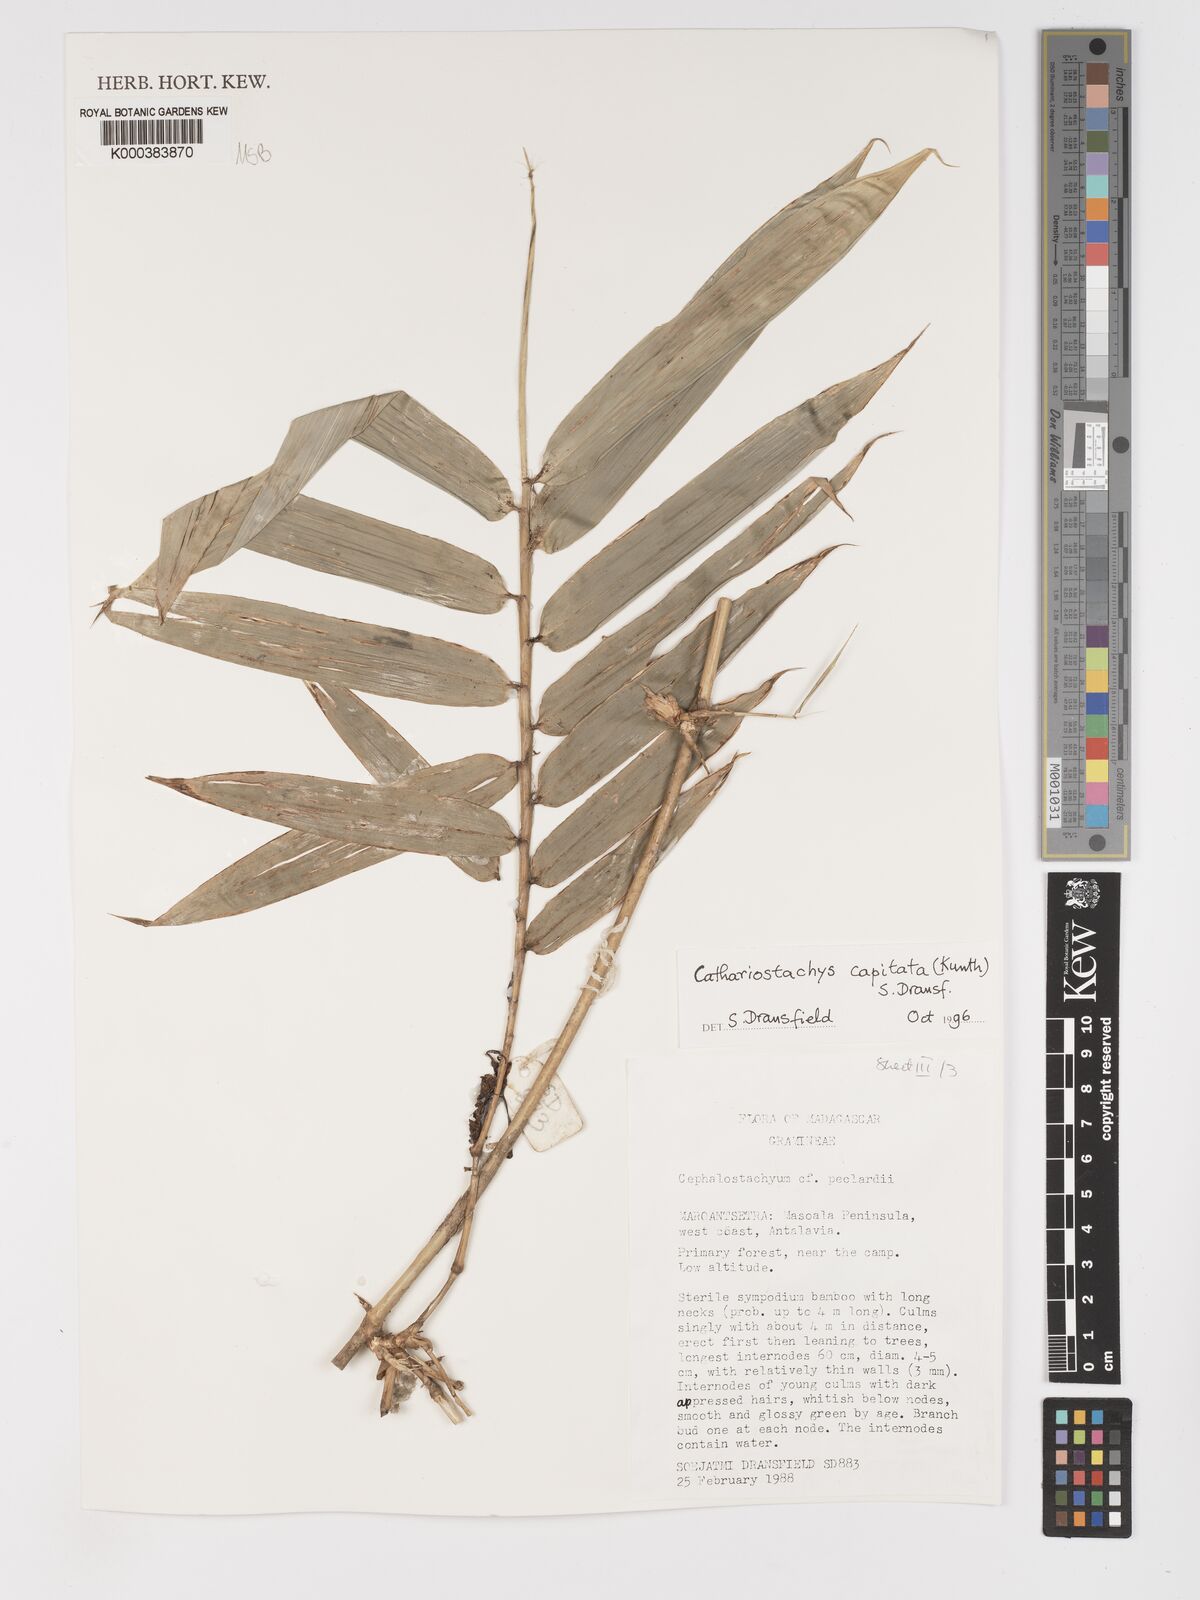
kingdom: Plantae
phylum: Tracheophyta
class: Liliopsida
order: Poales
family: Poaceae
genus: Cathariostachys
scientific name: Cathariostachys capitata
